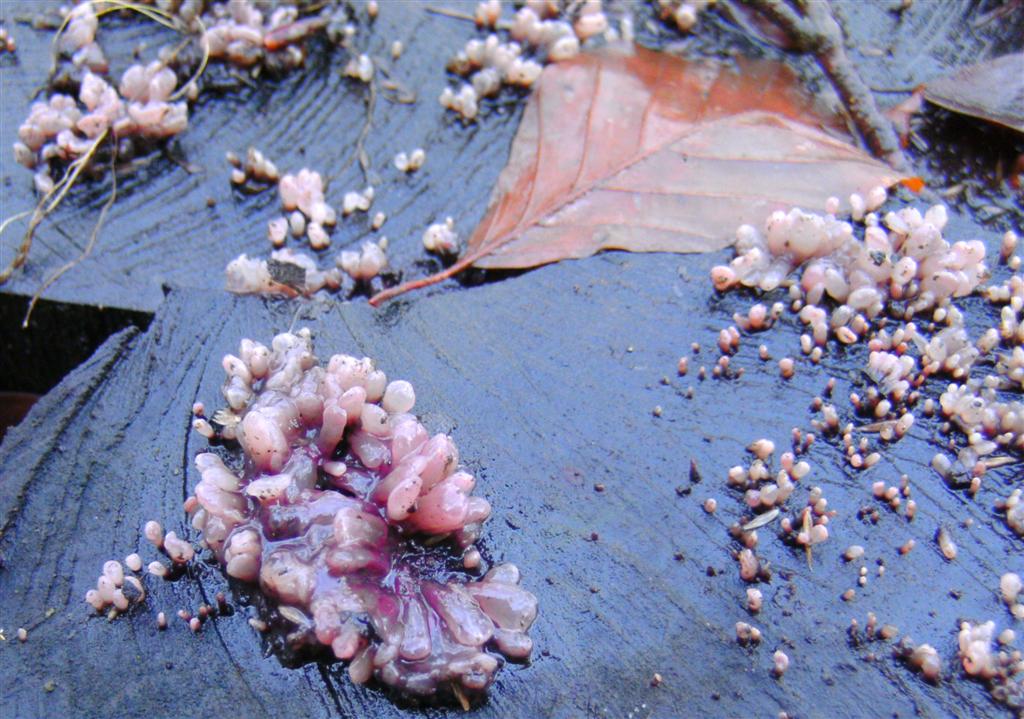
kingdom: Fungi
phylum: Ascomycota
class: Leotiomycetes
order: Helotiales
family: Gelatinodiscaceae
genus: Ascocoryne
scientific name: Ascocoryne sarcoides
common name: rødlilla sejskive
